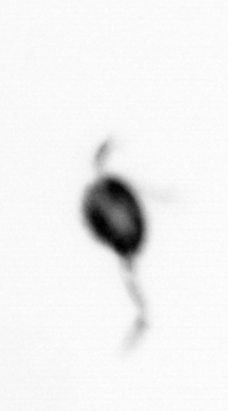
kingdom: Animalia
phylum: Arthropoda
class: Copepoda
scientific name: Copepoda
